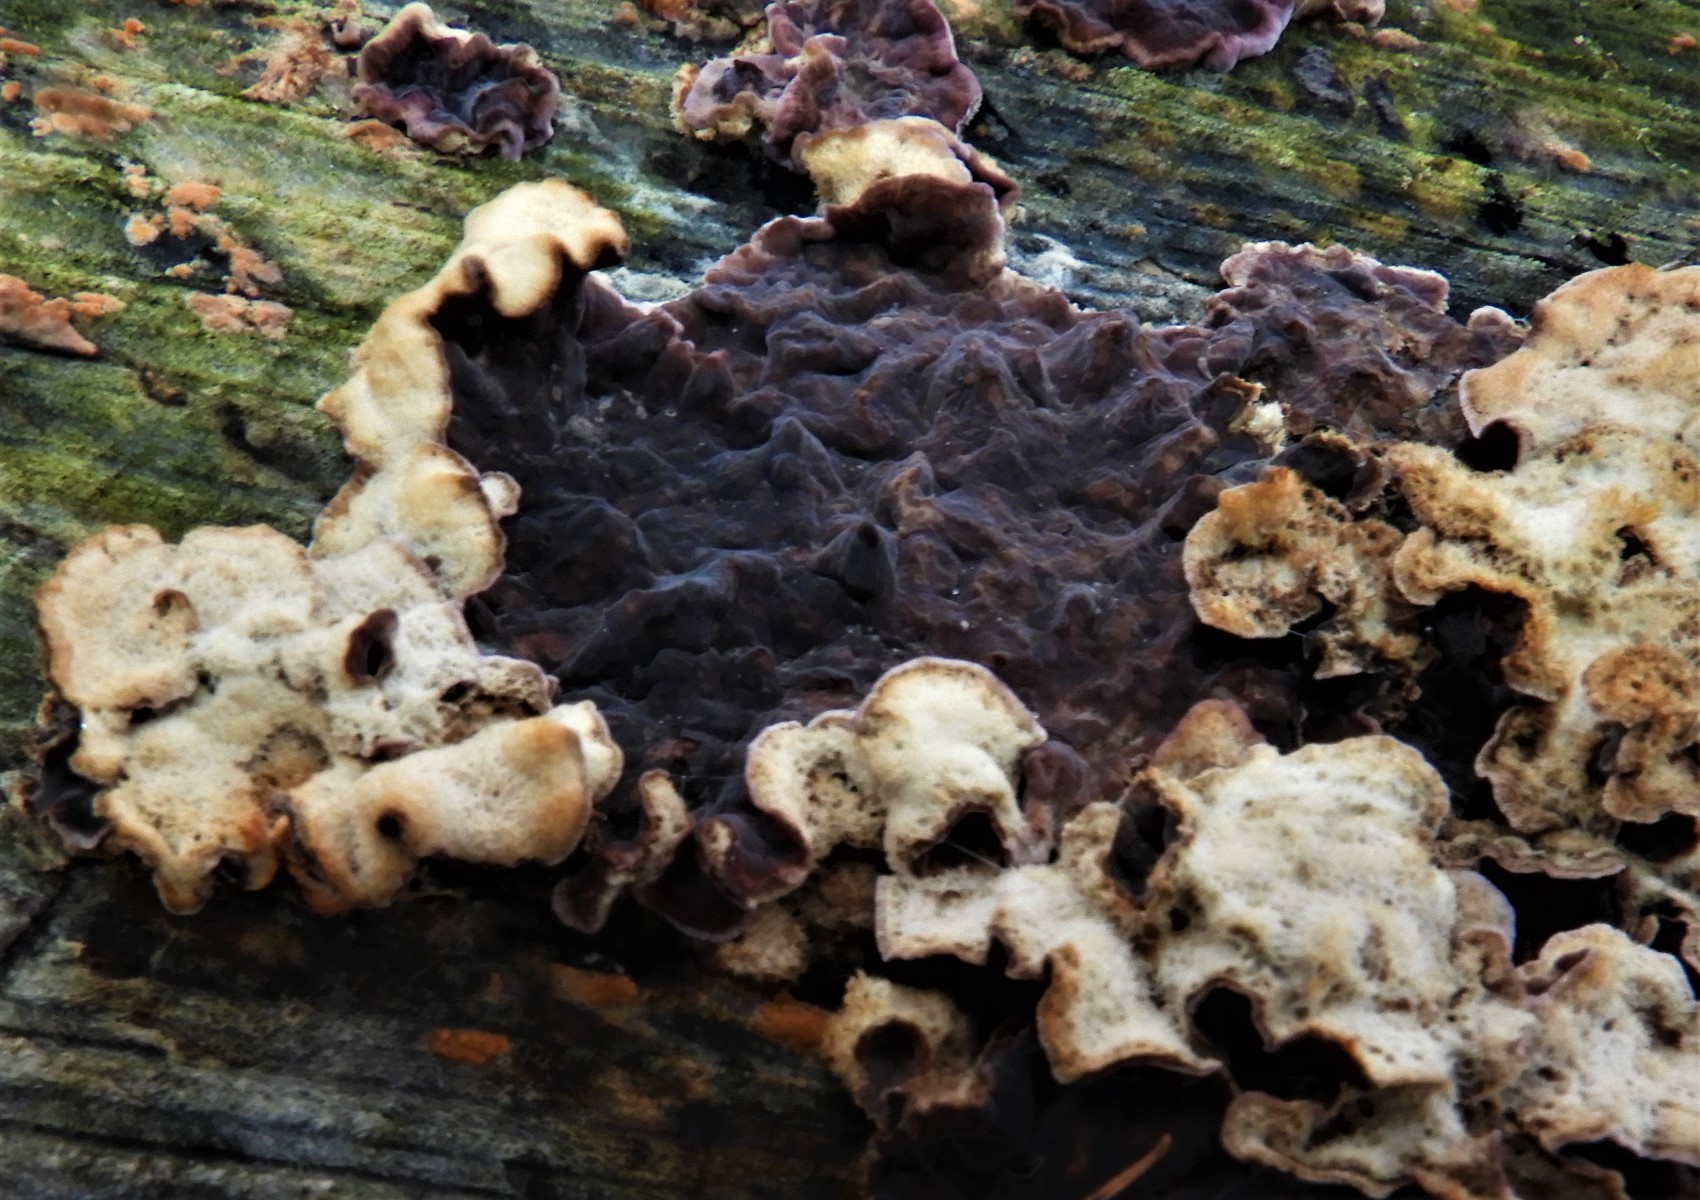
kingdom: Fungi
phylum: Basidiomycota
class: Agaricomycetes
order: Agaricales
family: Cyphellaceae
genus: Chondrostereum
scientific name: Chondrostereum purpureum
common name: purpurlædersvamp
